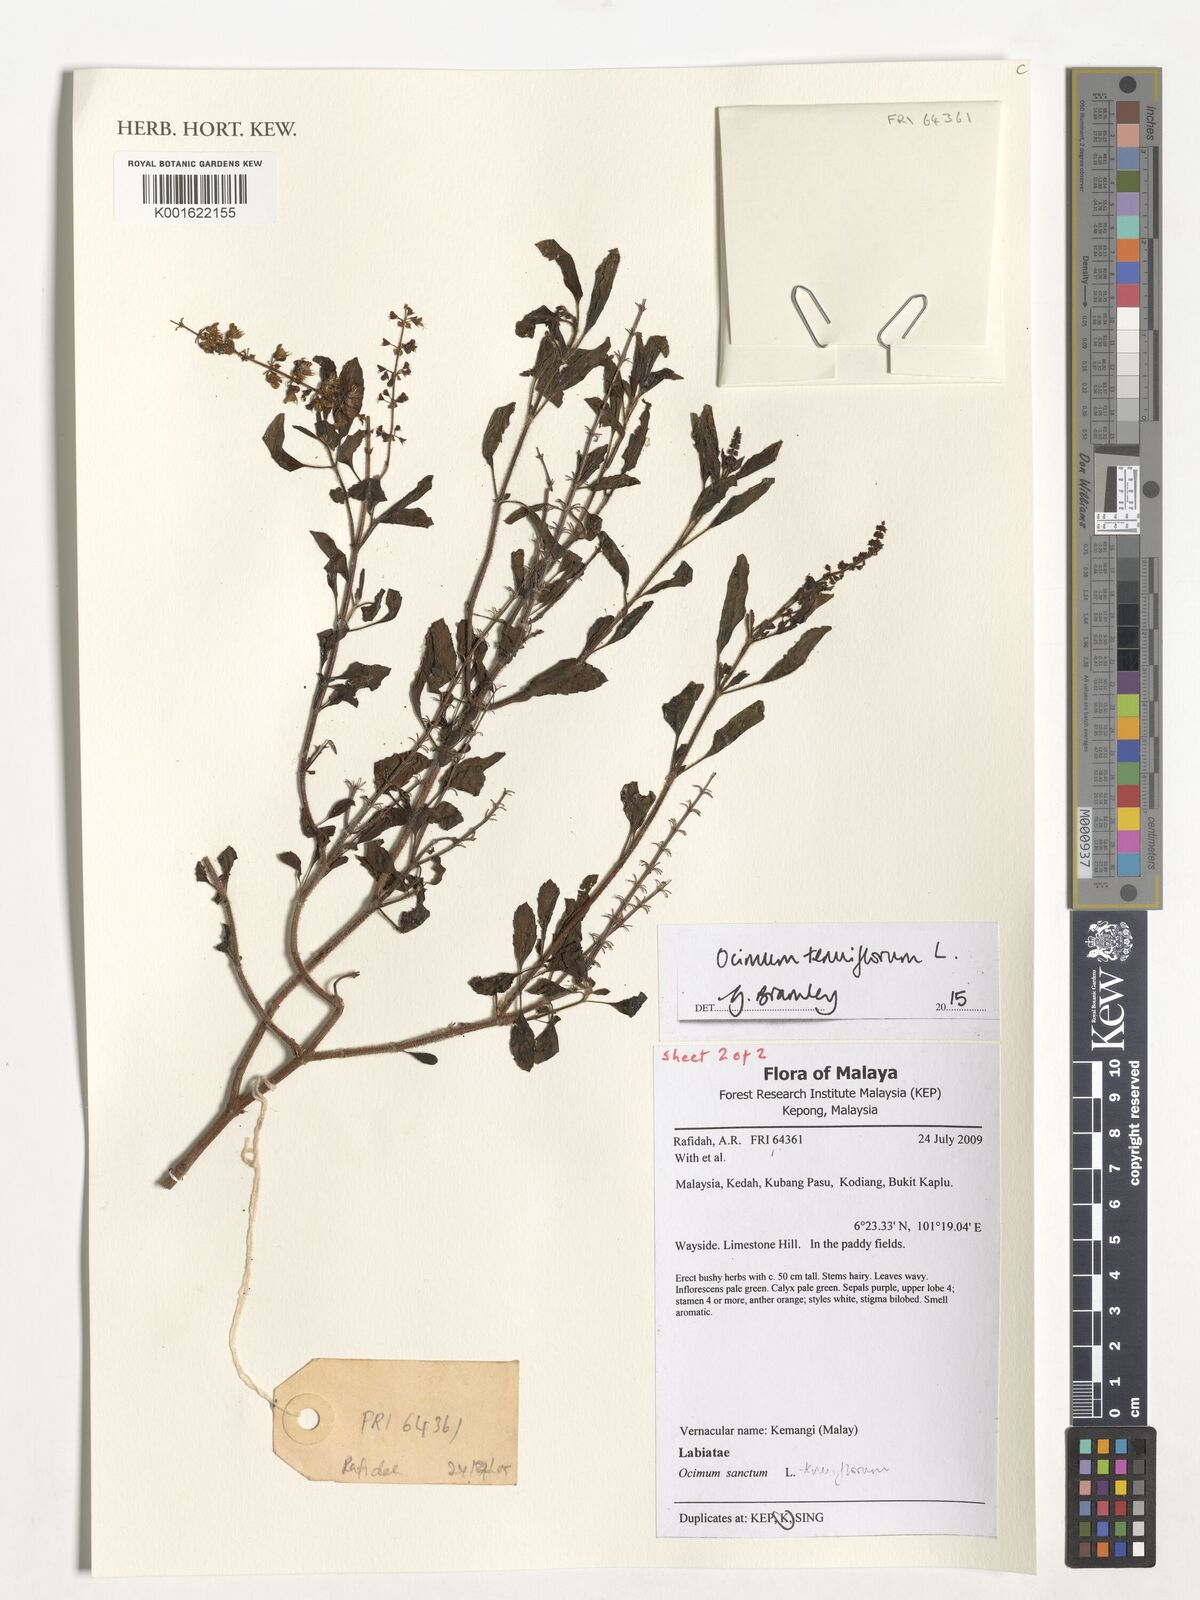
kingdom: Plantae
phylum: Tracheophyta
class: Magnoliopsida
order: Lamiales
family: Lamiaceae
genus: Ocimum
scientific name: Ocimum tenuiflorum
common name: Sacred basil
